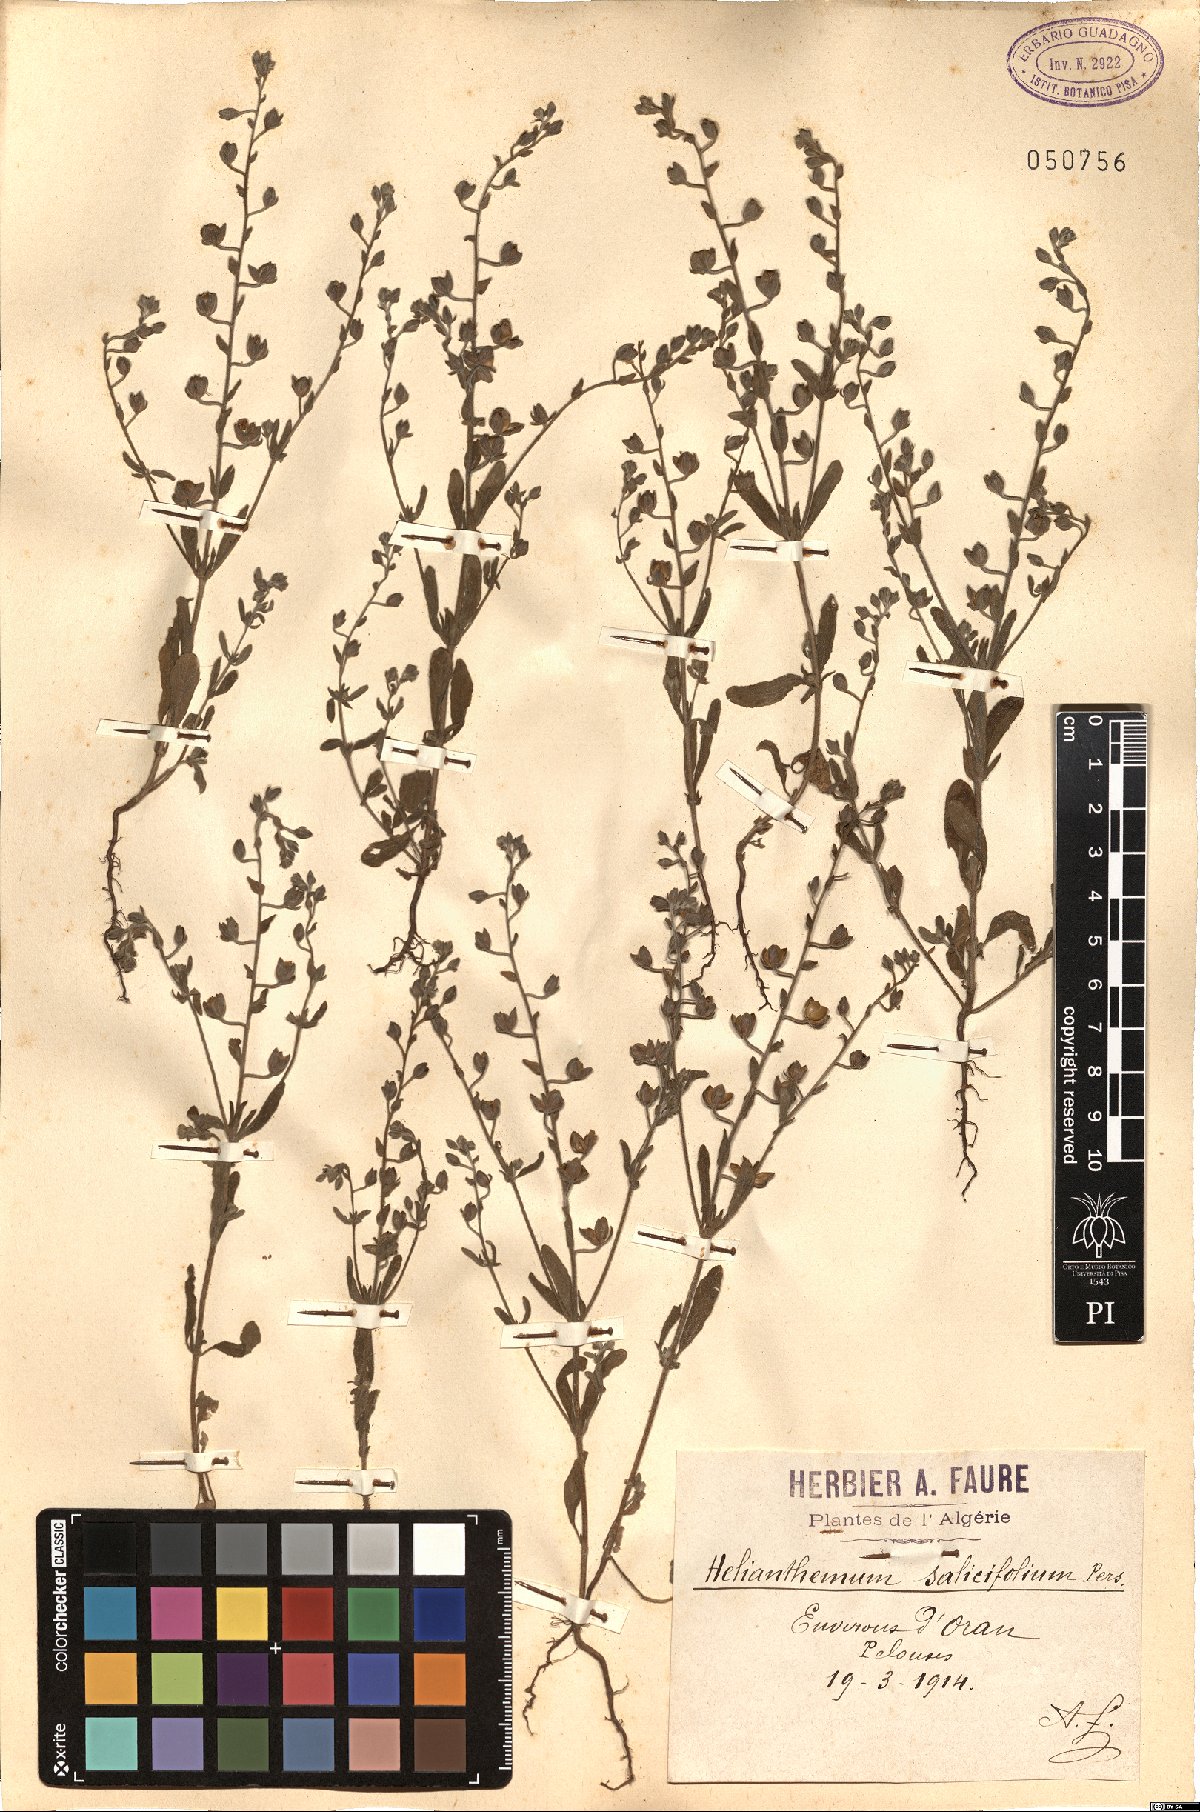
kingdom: Plantae
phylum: Tracheophyta
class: Magnoliopsida
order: Malvales
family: Cistaceae
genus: Helianthemum
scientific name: Helianthemum salicifolium
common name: Willowleaf frostweed
